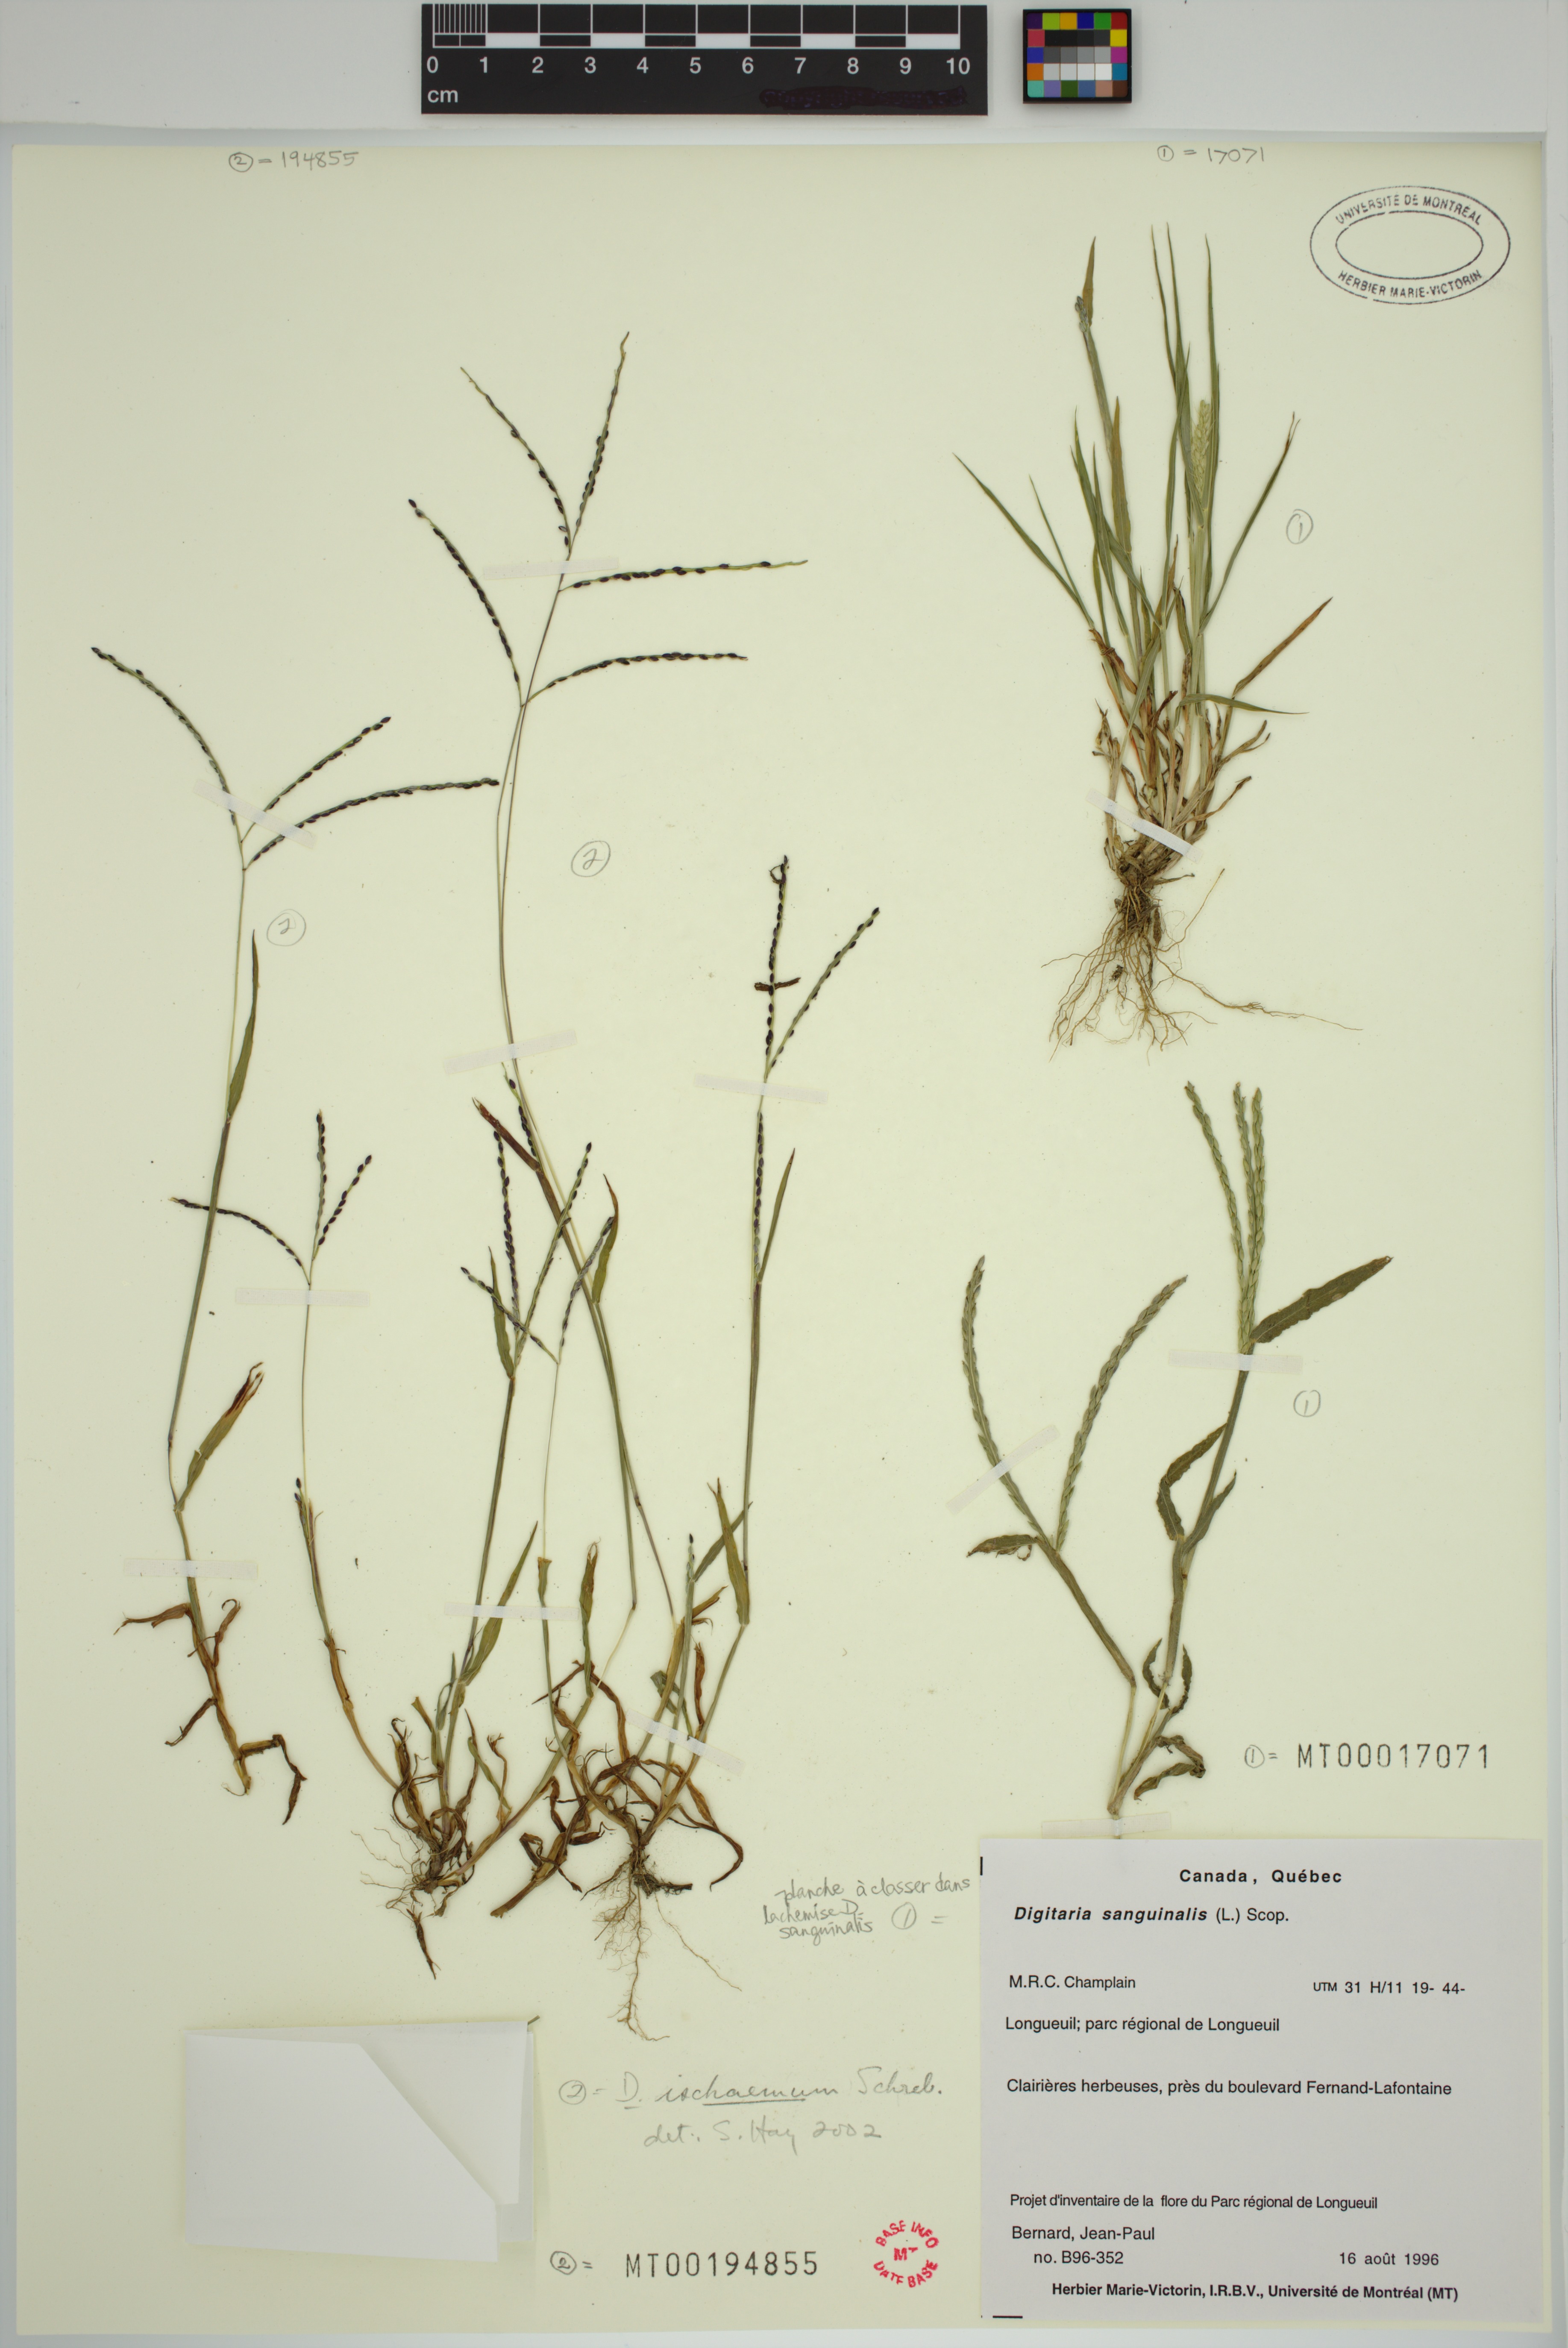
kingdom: Plantae
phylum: Tracheophyta
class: Liliopsida
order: Poales
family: Poaceae
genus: Digitaria
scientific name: Digitaria sanguinalis
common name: Hairy crabgrass
